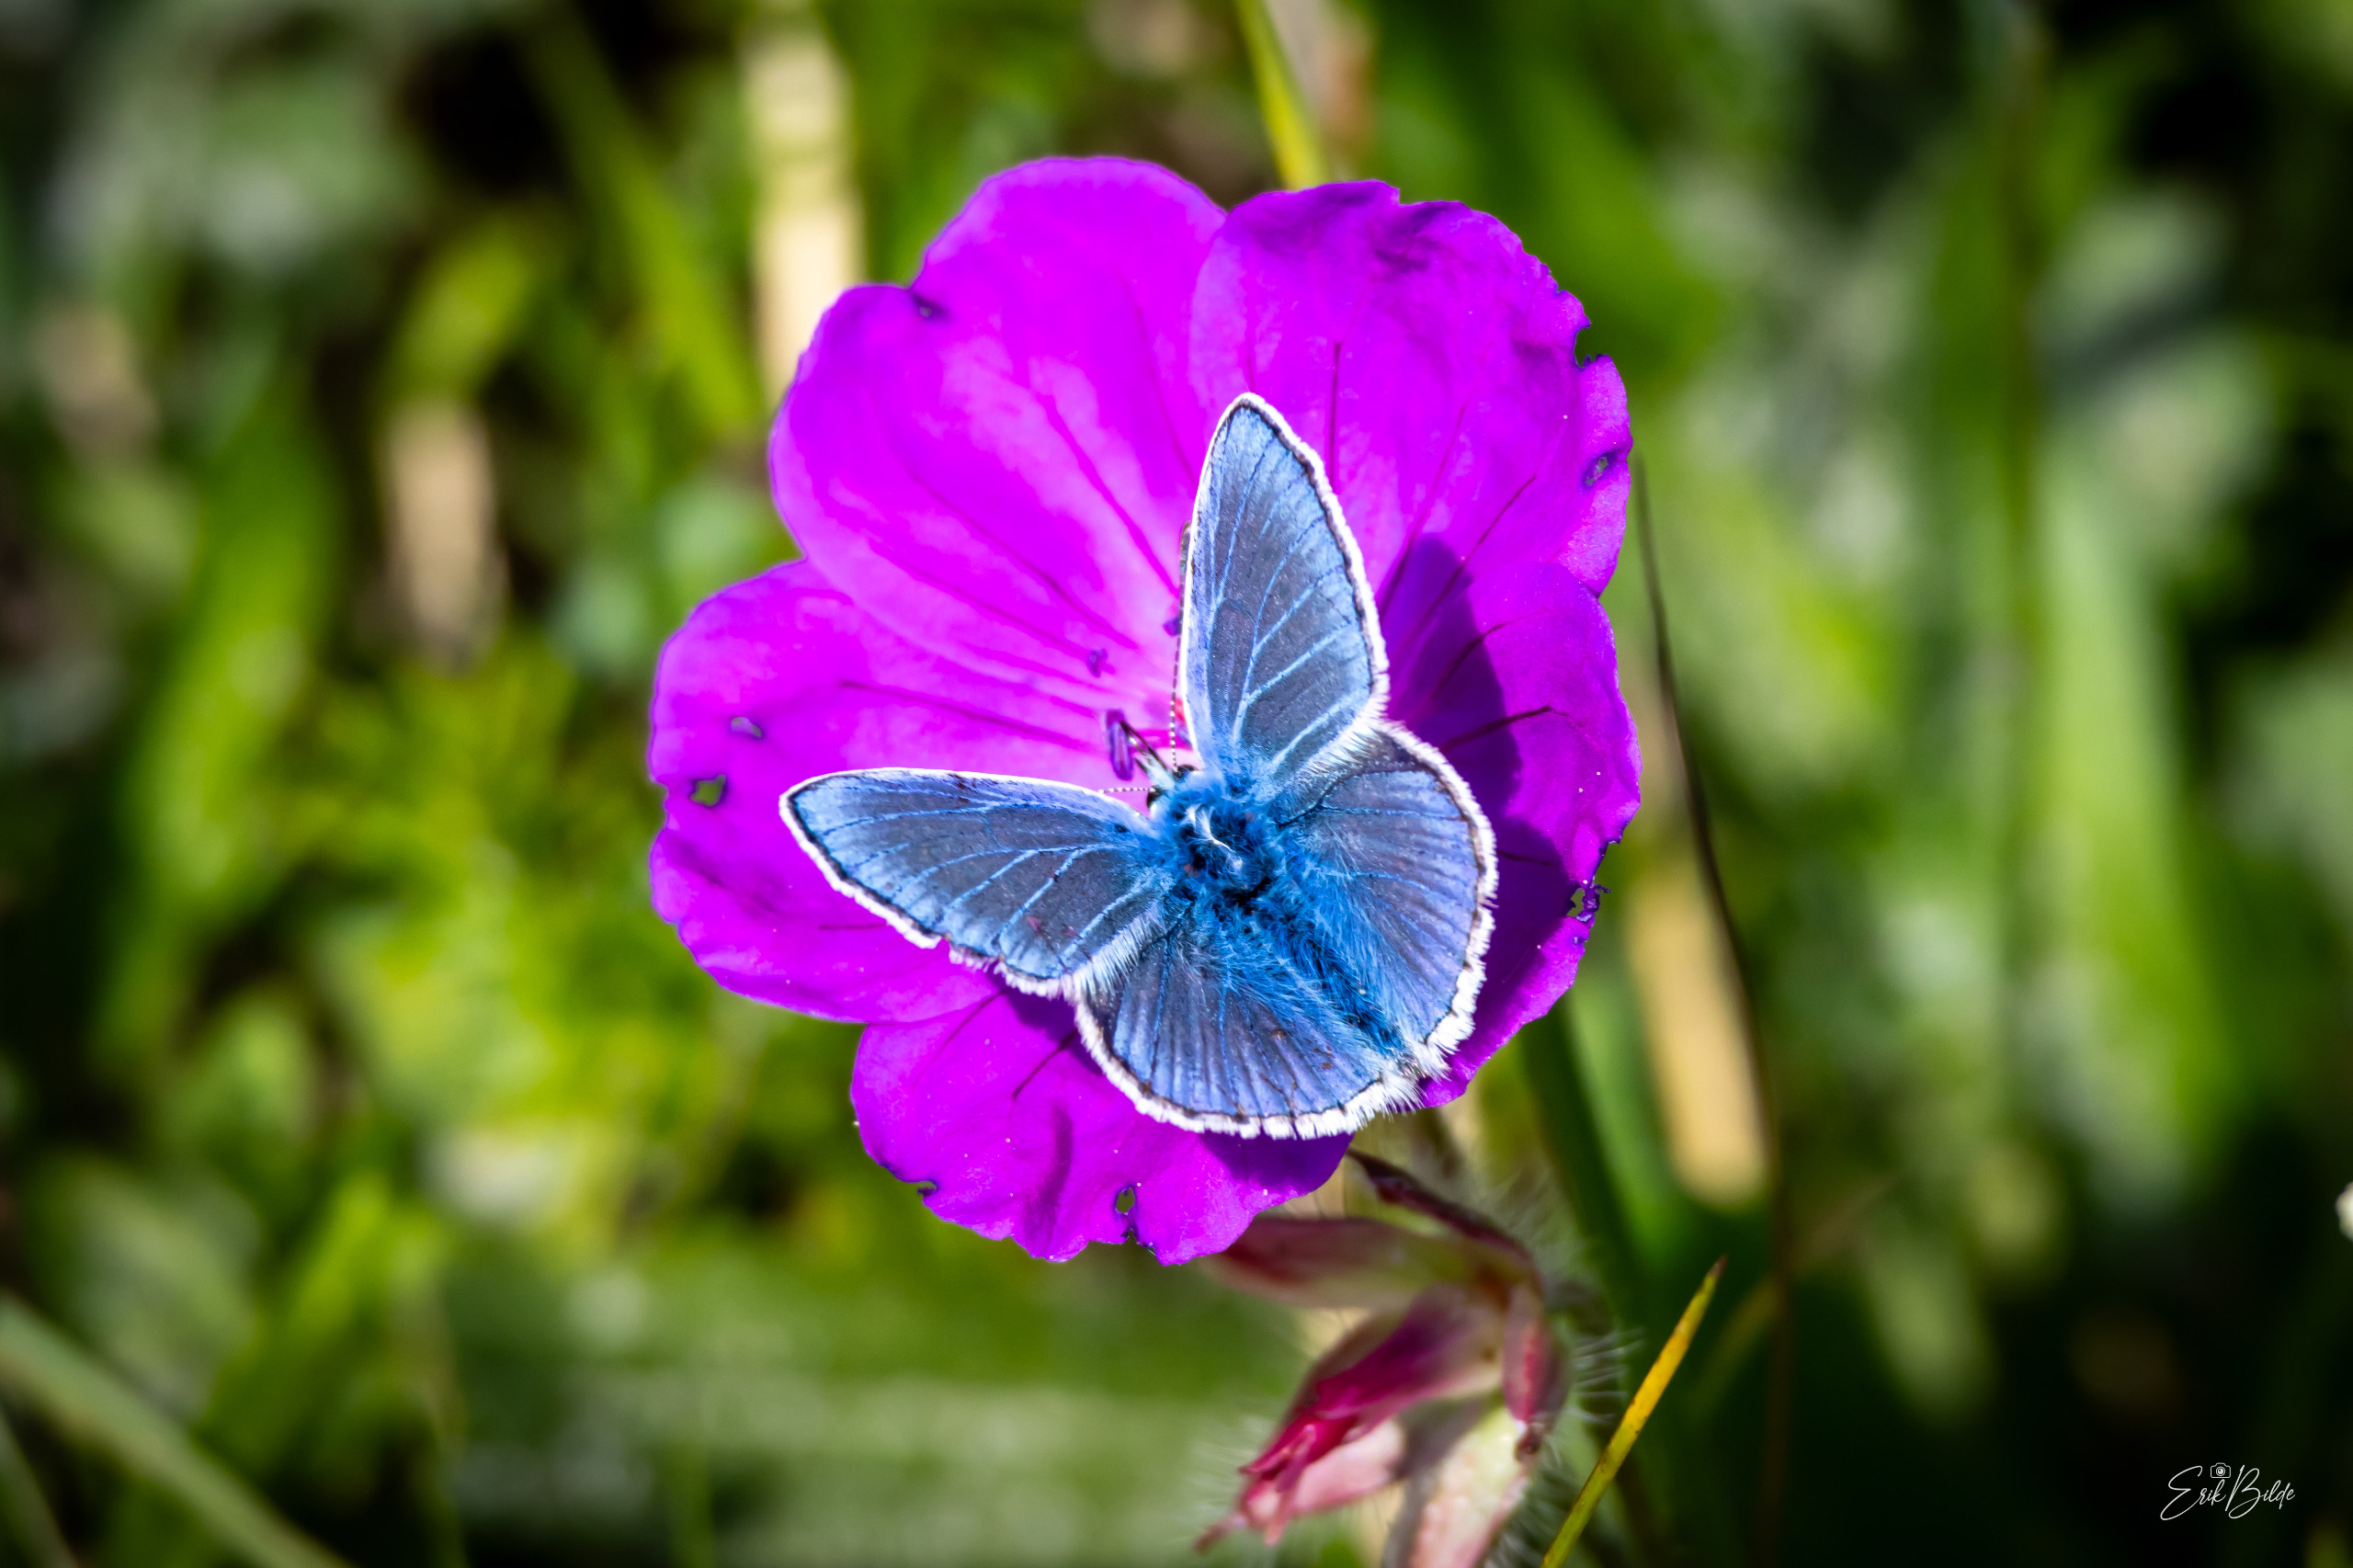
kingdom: Animalia
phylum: Arthropoda
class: Insecta
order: Lepidoptera
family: Lycaenidae
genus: Polyommatus
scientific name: Polyommatus icarus
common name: Almindelig blåfugl
